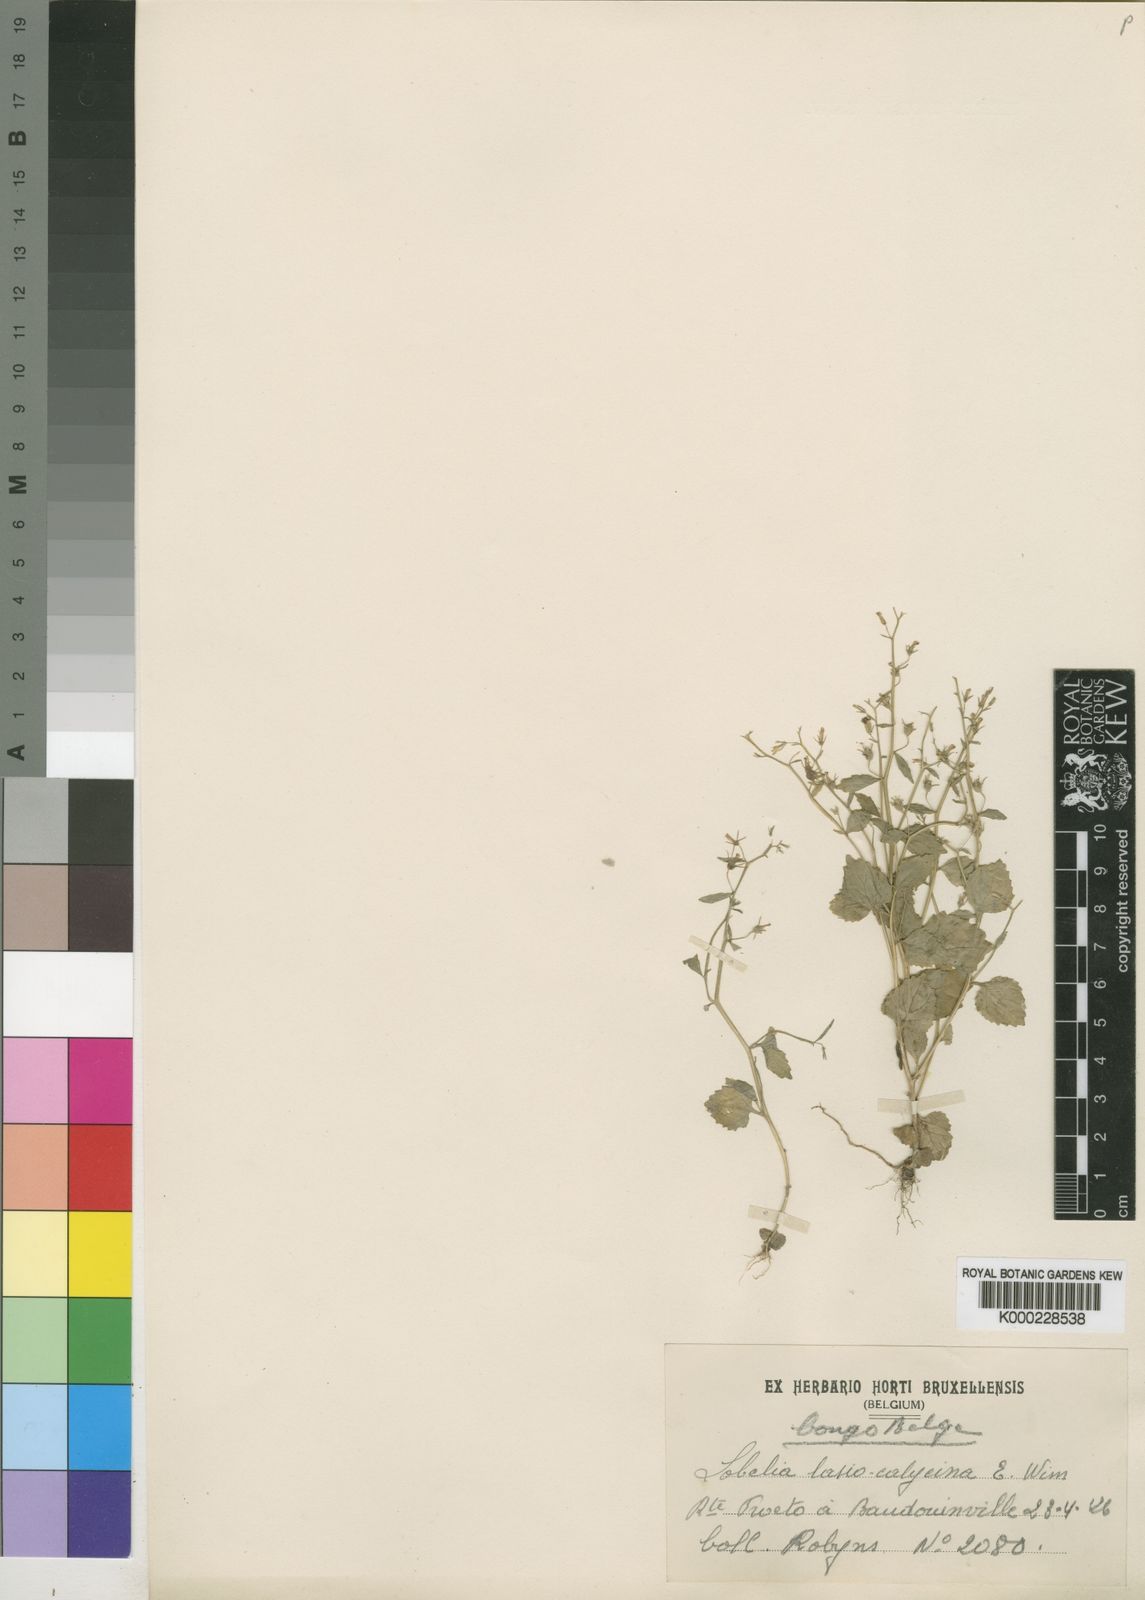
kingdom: Plantae
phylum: Tracheophyta
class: Magnoliopsida
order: Asterales
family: Campanulaceae
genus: Lobelia
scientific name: Lobelia lasiocalycina
